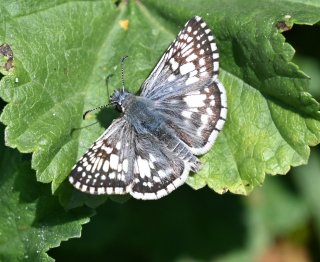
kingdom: Animalia
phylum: Arthropoda
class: Insecta
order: Lepidoptera
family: Hesperiidae
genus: Pyrgus
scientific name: Pyrgus communis
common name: Common Checkered-Skipper
